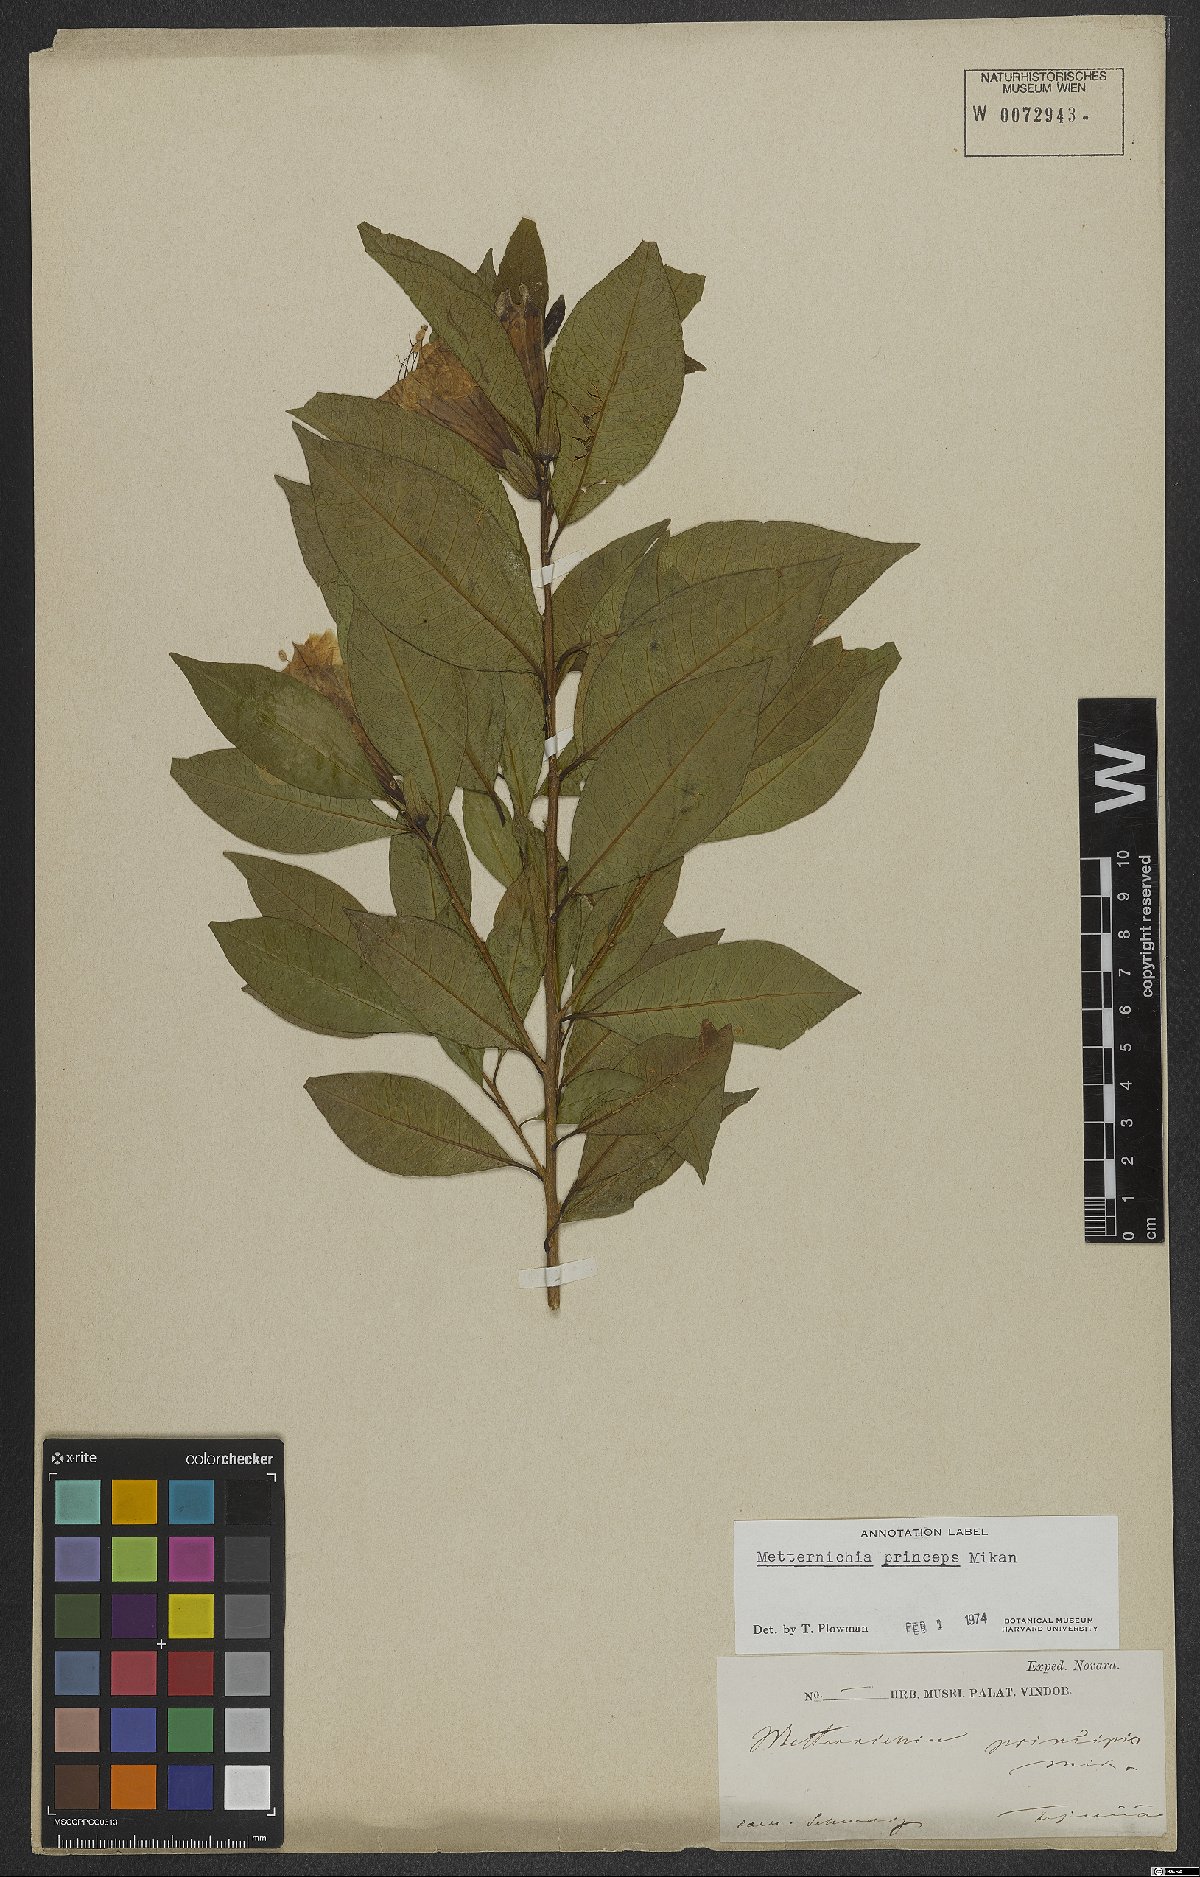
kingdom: Plantae
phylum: Tracheophyta
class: Magnoliopsida
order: Solanales
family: Solanaceae
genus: Metternichia
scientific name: Metternichia principis
